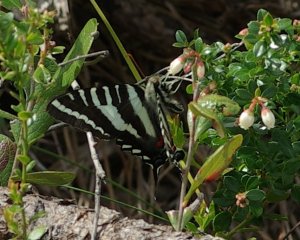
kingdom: Animalia
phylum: Arthropoda
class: Insecta
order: Lepidoptera
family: Papilionidae
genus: Protographium
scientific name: Protographium marcellus
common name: Zebra Swallowtail
